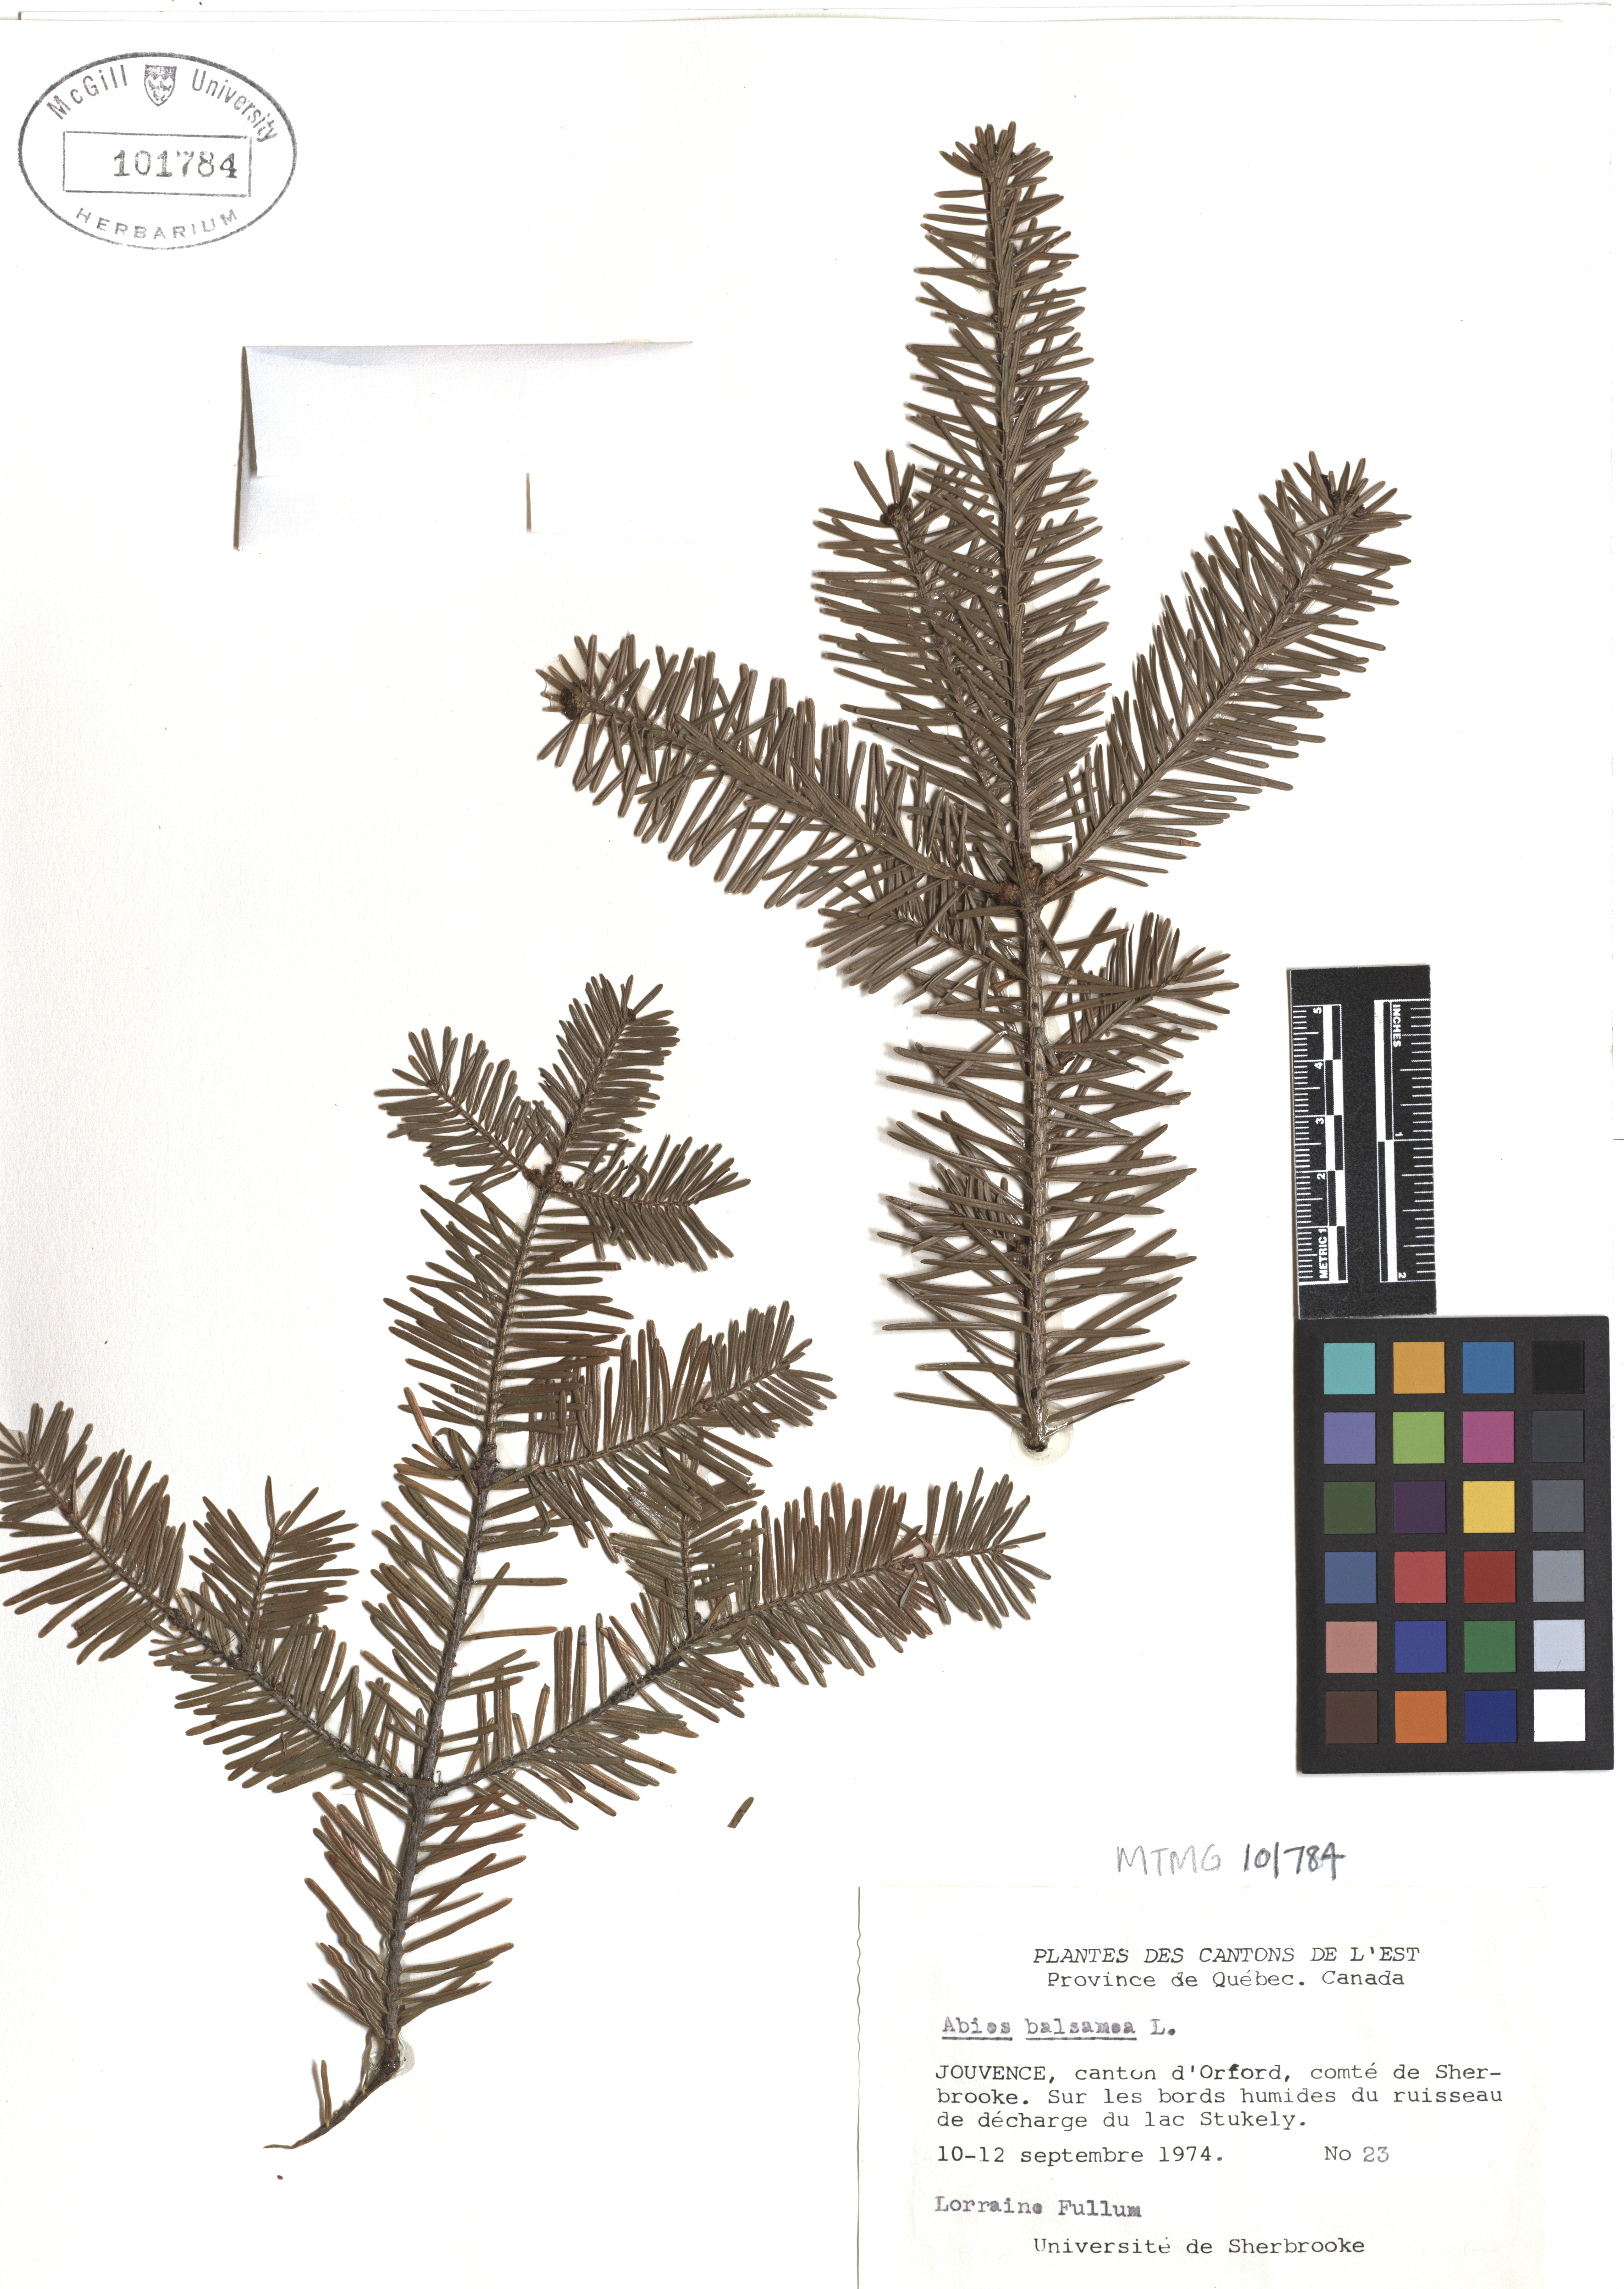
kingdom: Plantae
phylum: Tracheophyta
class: Pinopsida
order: Pinales
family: Pinaceae
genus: Abies
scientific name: Abies balsamea
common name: Balsam fir
